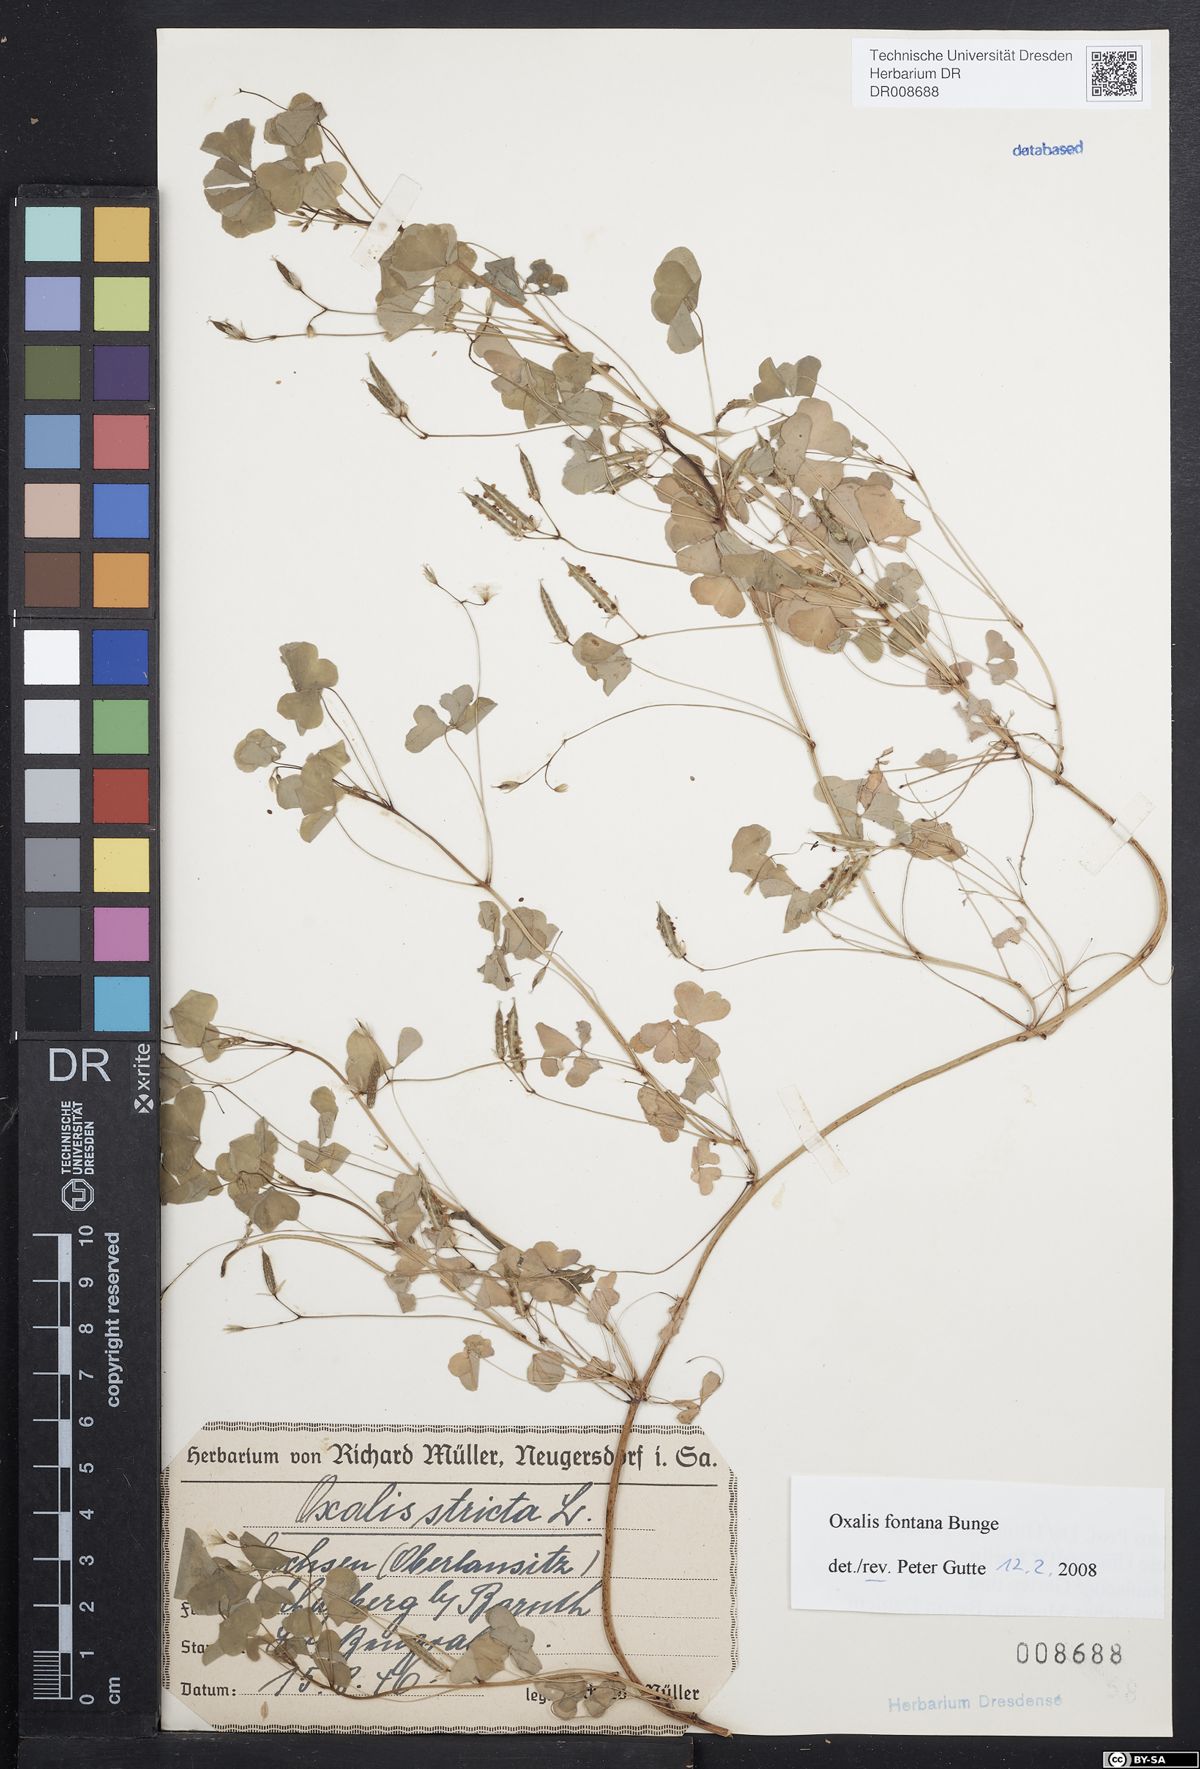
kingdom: Plantae
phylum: Tracheophyta
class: Magnoliopsida
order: Oxalidales
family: Oxalidaceae
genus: Oxalis
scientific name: Oxalis stricta
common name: Upright yellow-sorrel
